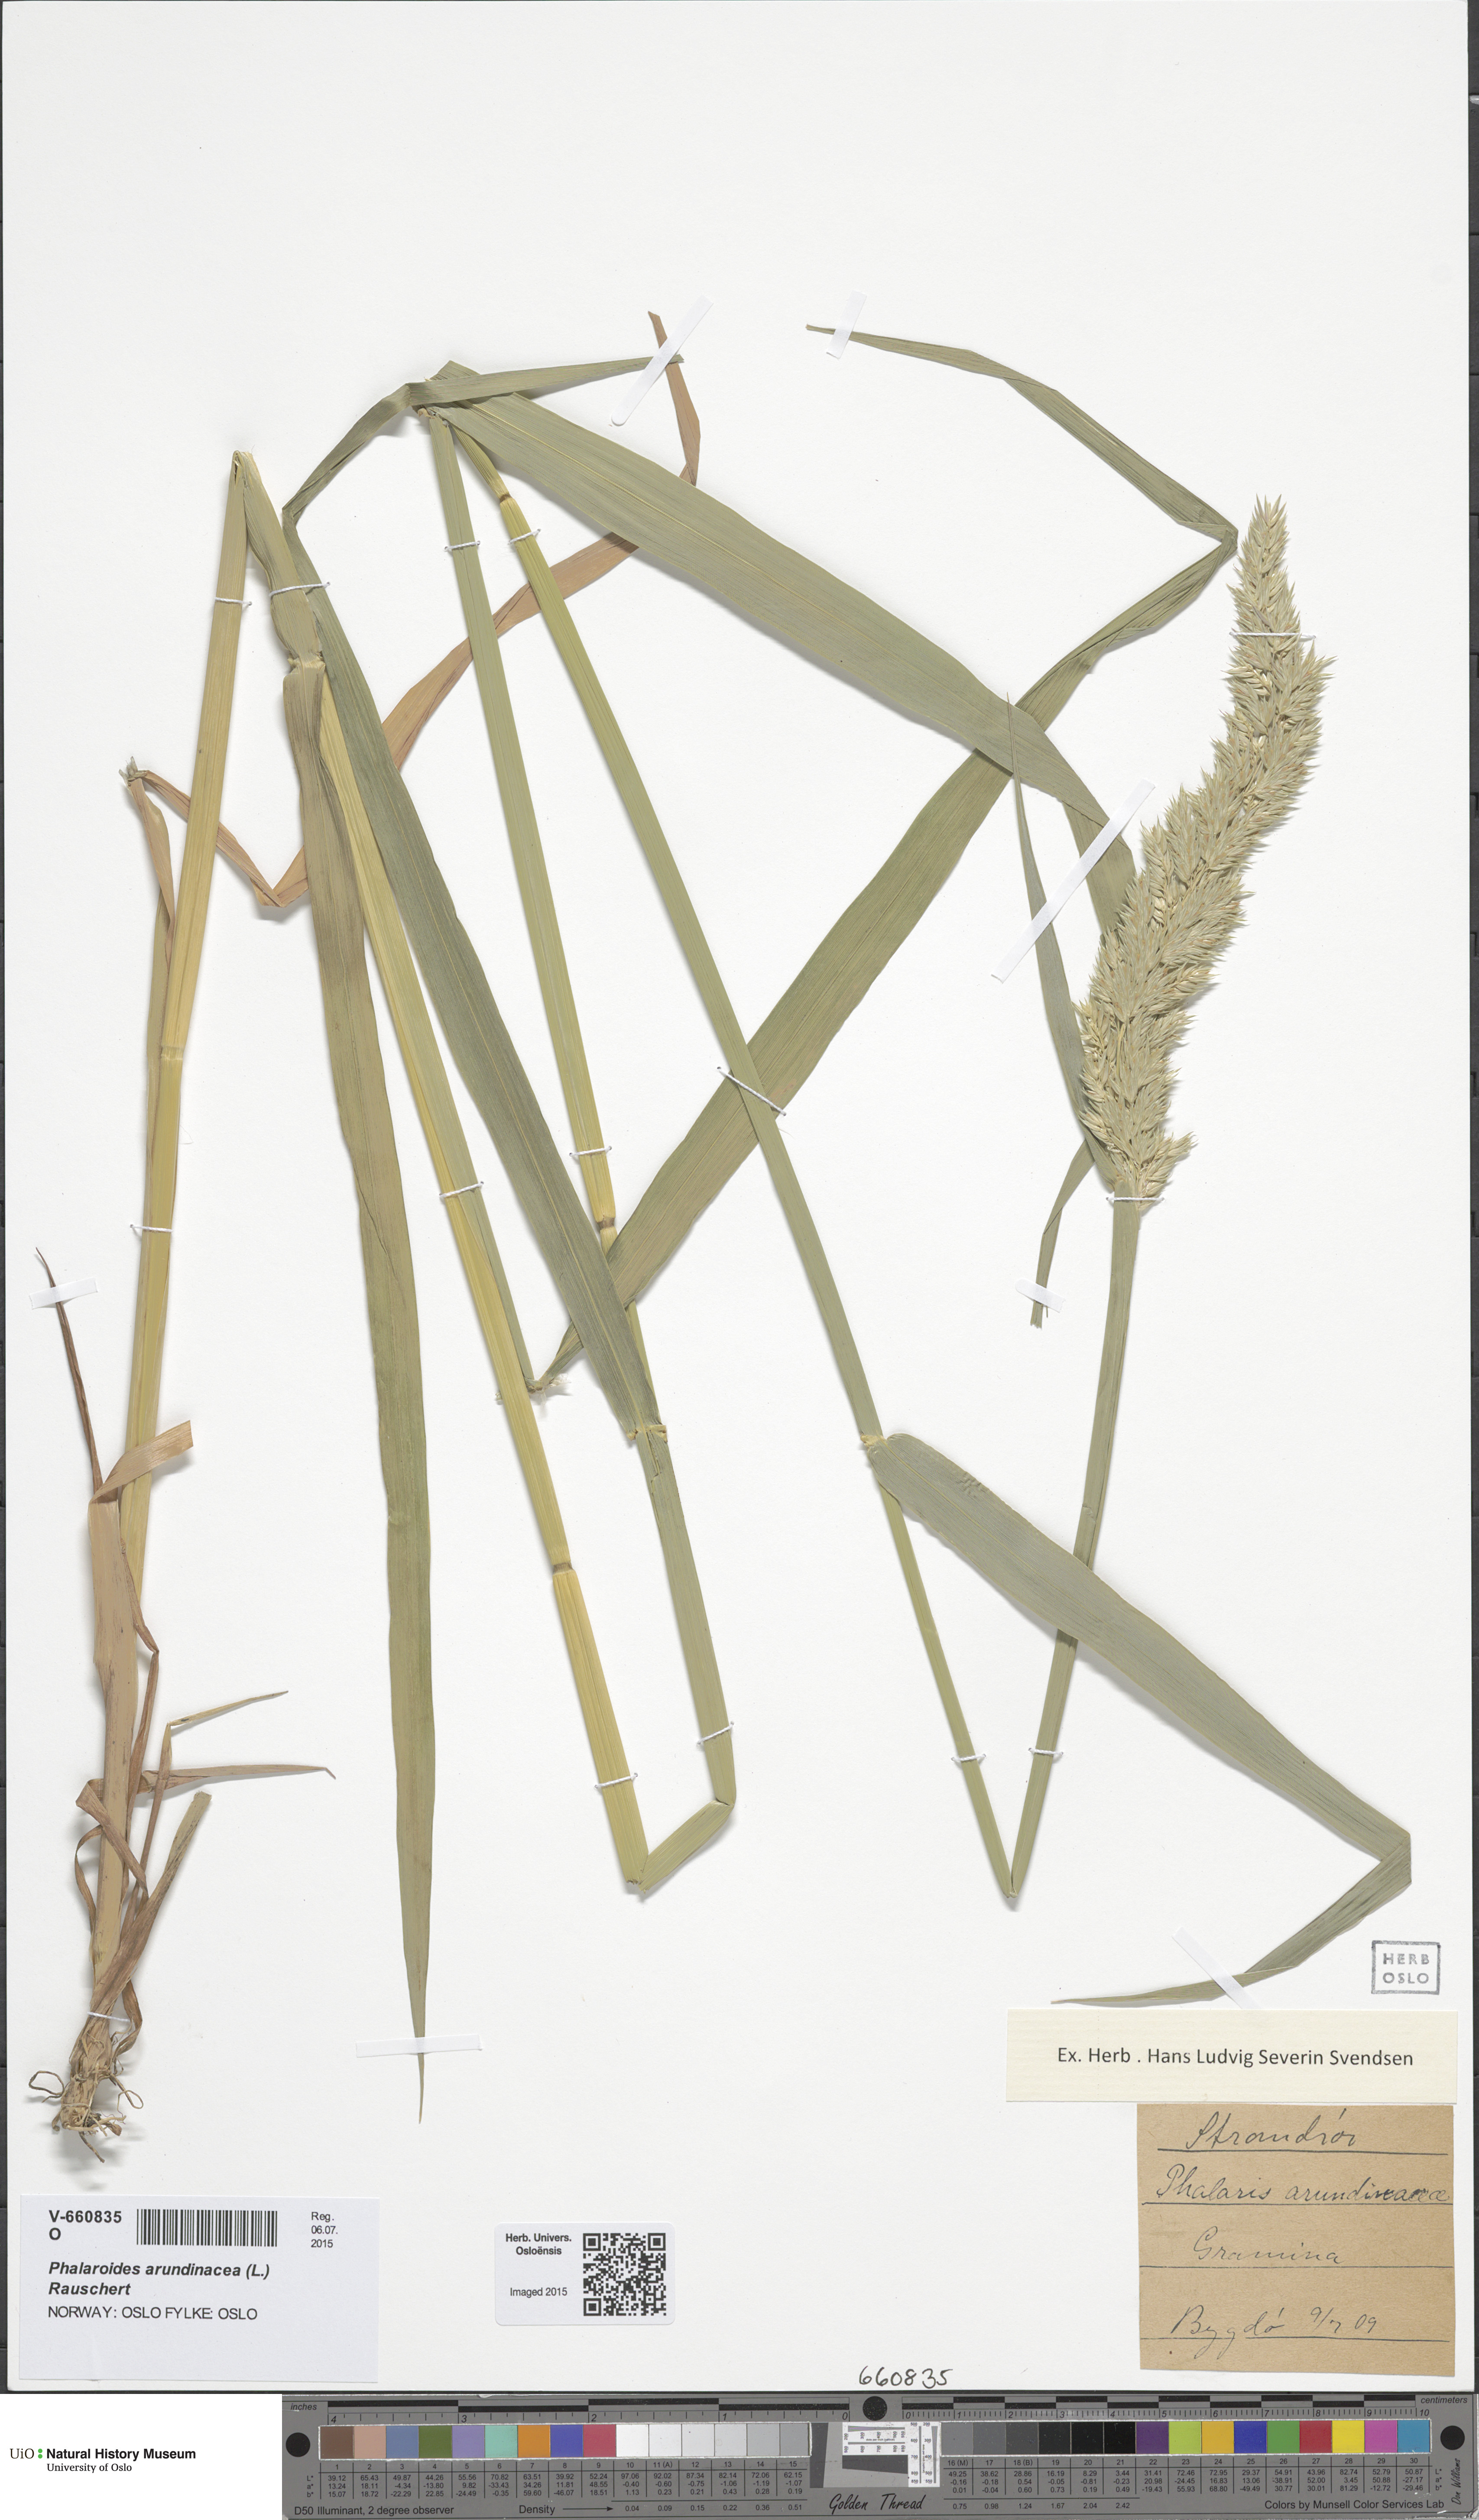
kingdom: Plantae
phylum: Tracheophyta
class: Liliopsida
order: Poales
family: Poaceae
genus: Phalaris
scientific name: Phalaris arundinacea
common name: Reed canary-grass
